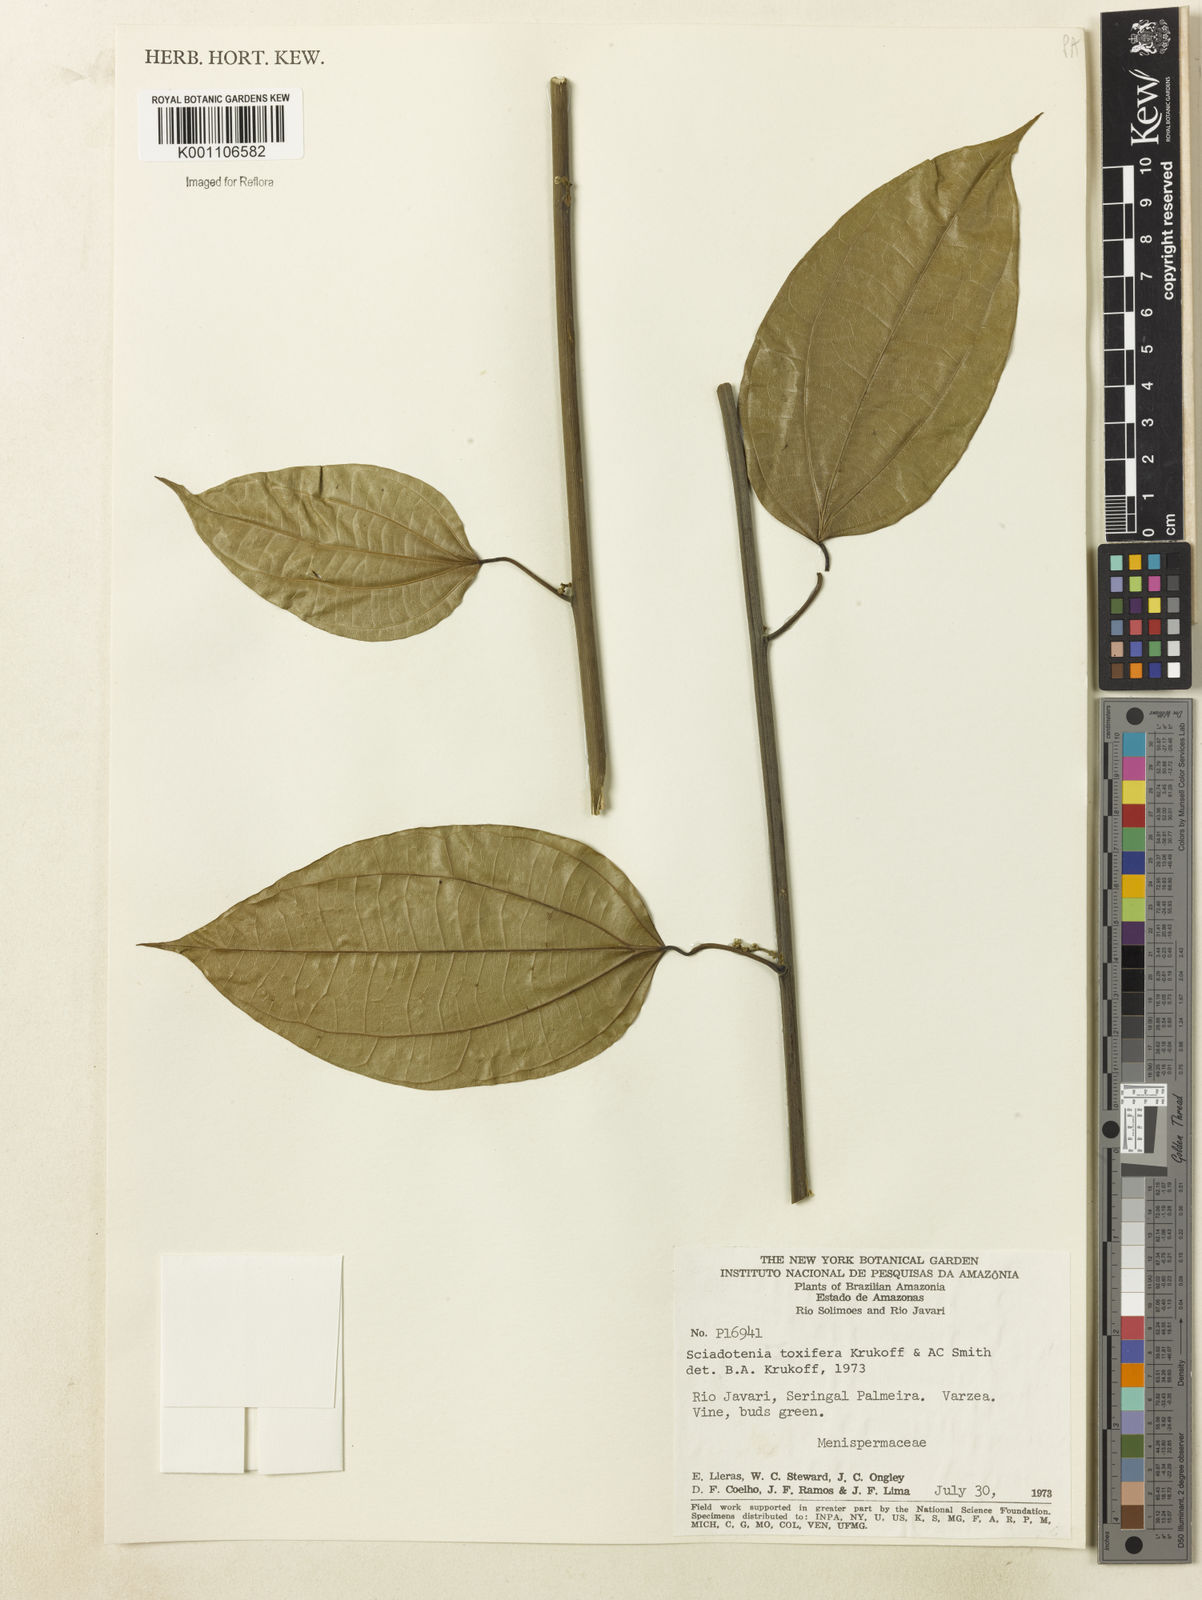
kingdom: Plantae
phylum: Tracheophyta
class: Magnoliopsida
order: Ranunculales
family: Menispermaceae
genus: Sciadotenia
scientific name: Sciadotenia toxifera
